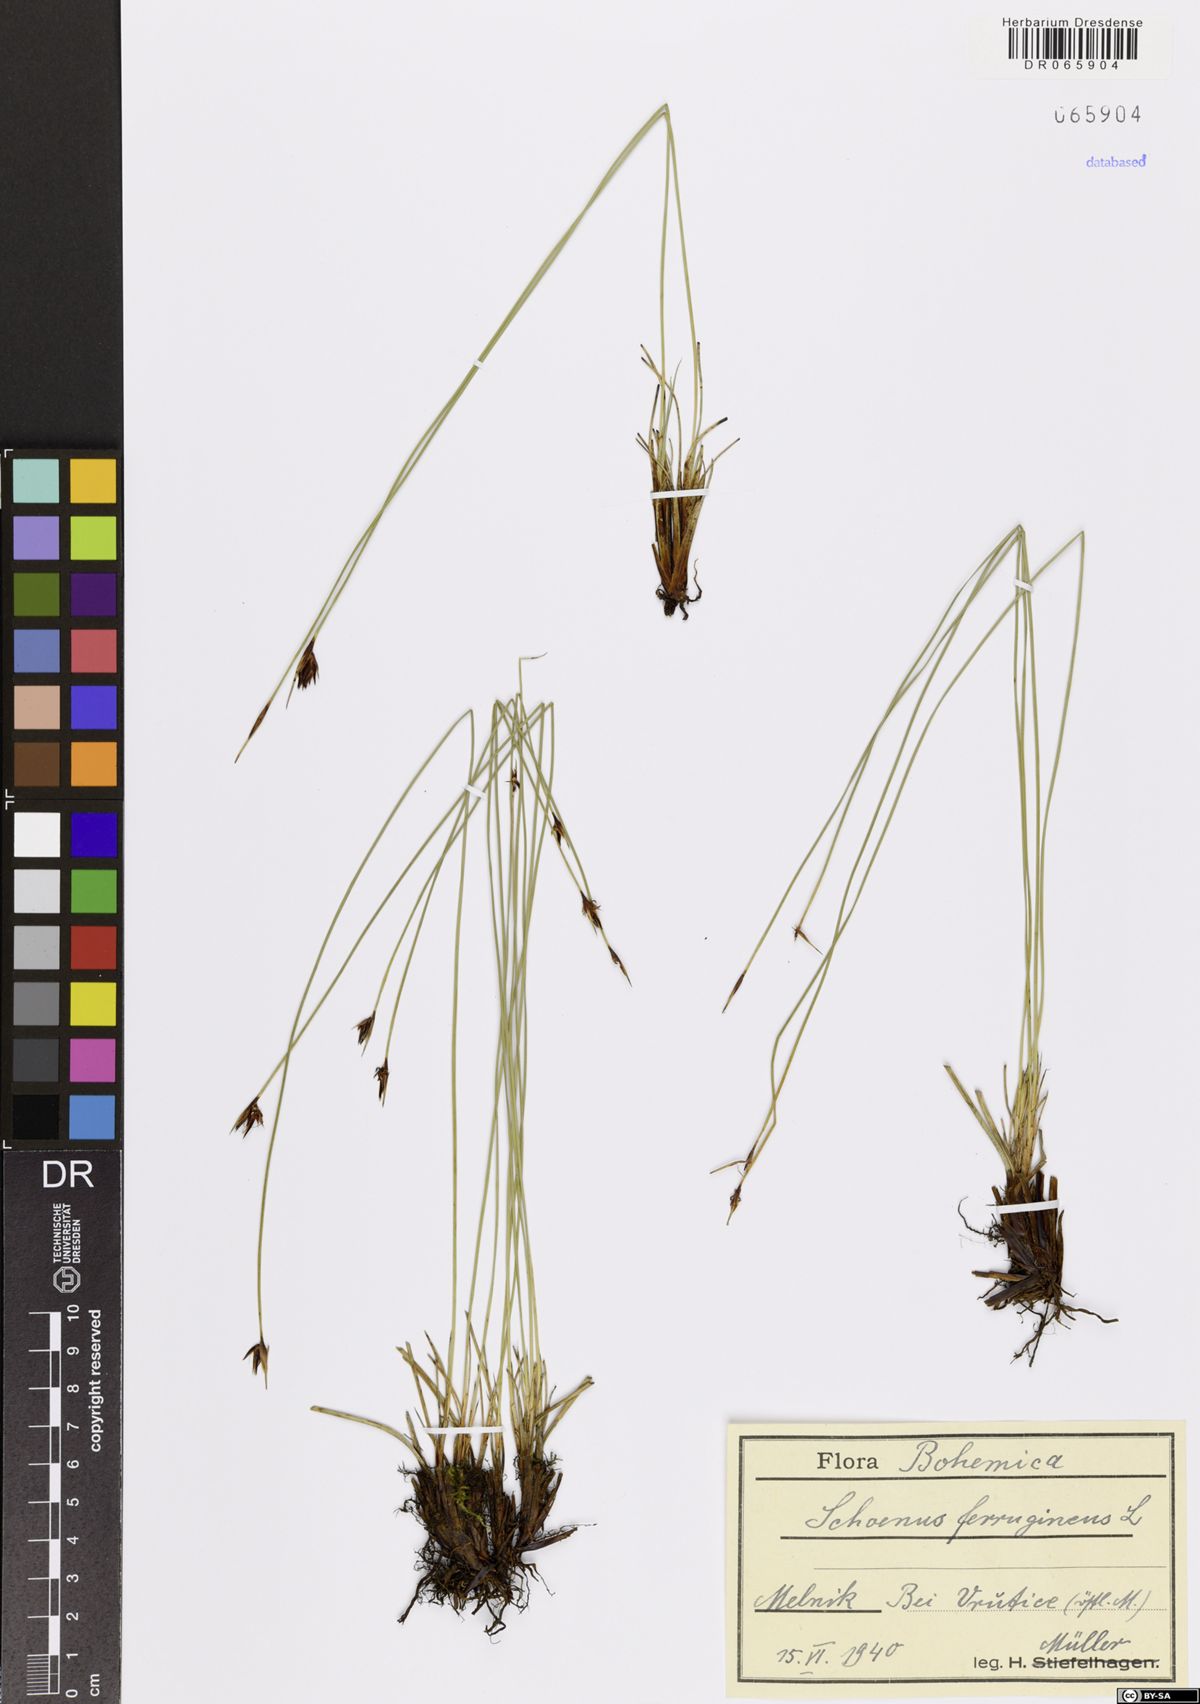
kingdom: Plantae
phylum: Tracheophyta
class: Liliopsida
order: Poales
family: Cyperaceae
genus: Schoenus
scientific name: Schoenus ferrugineus
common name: Brown bog-rush
